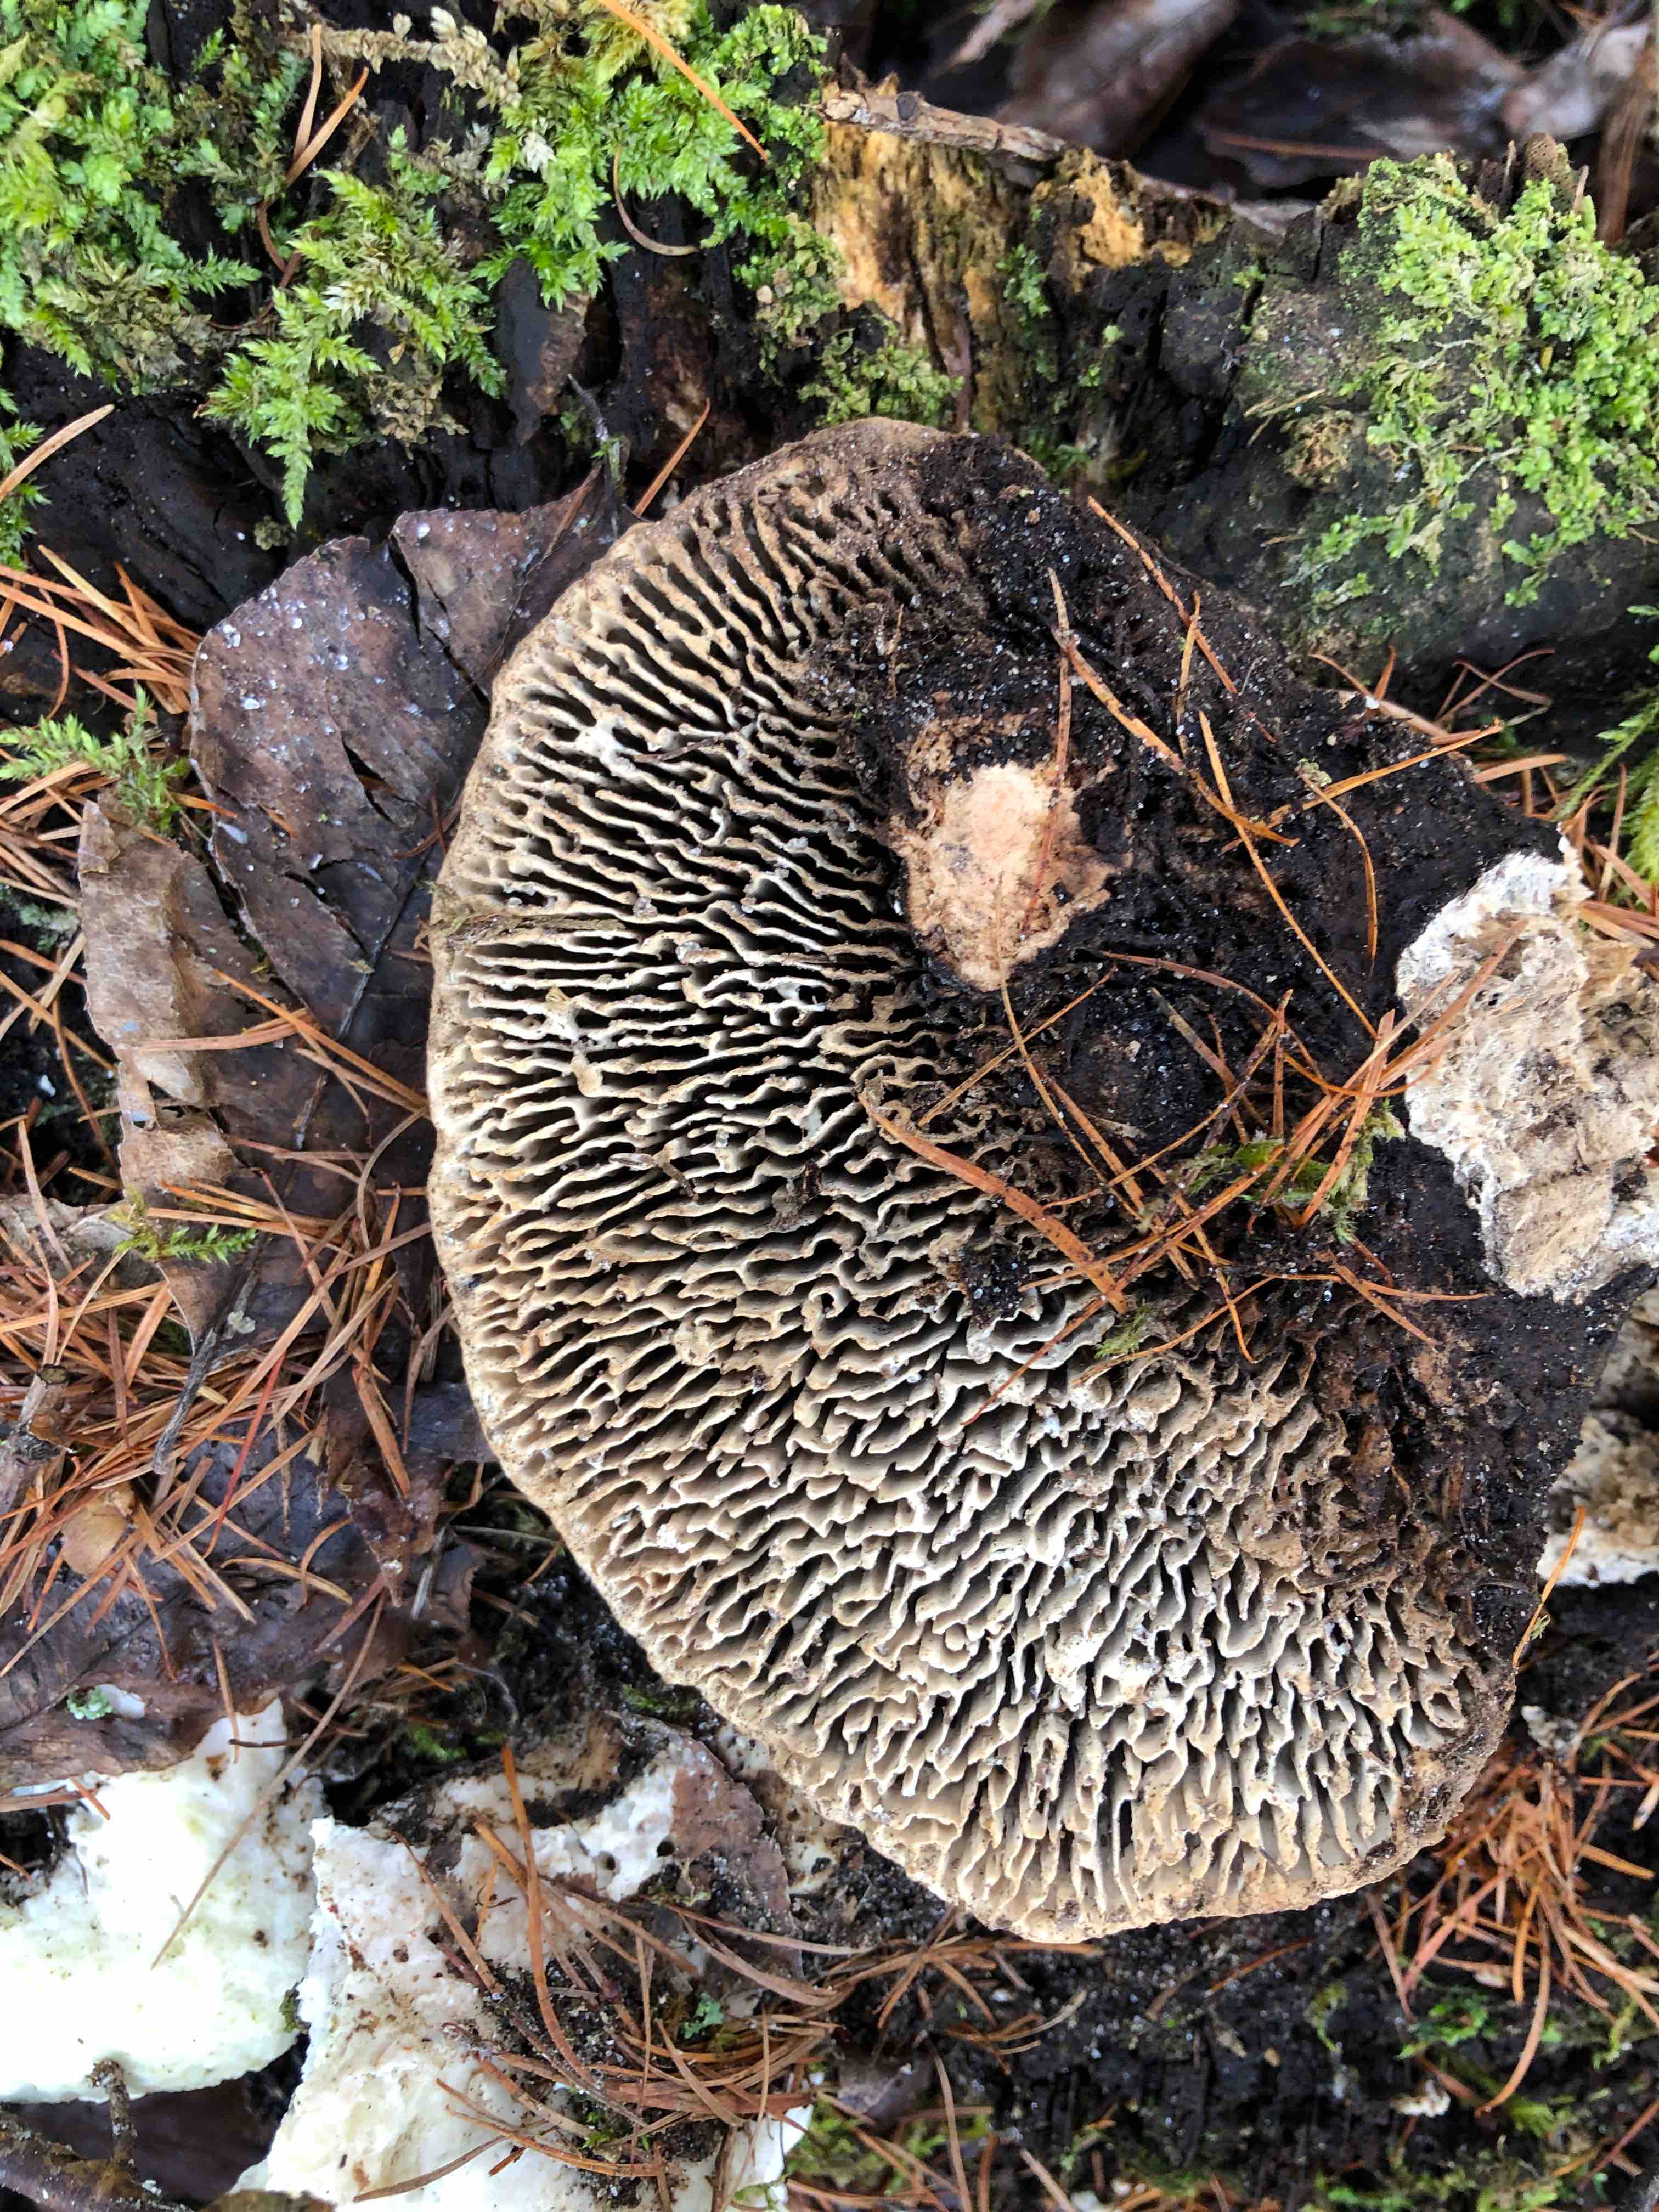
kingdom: Fungi
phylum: Basidiomycota
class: Agaricomycetes
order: Polyporales
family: Fomitopsidaceae
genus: Daedalea
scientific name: Daedalea quercina
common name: ege-labyrintsvamp
